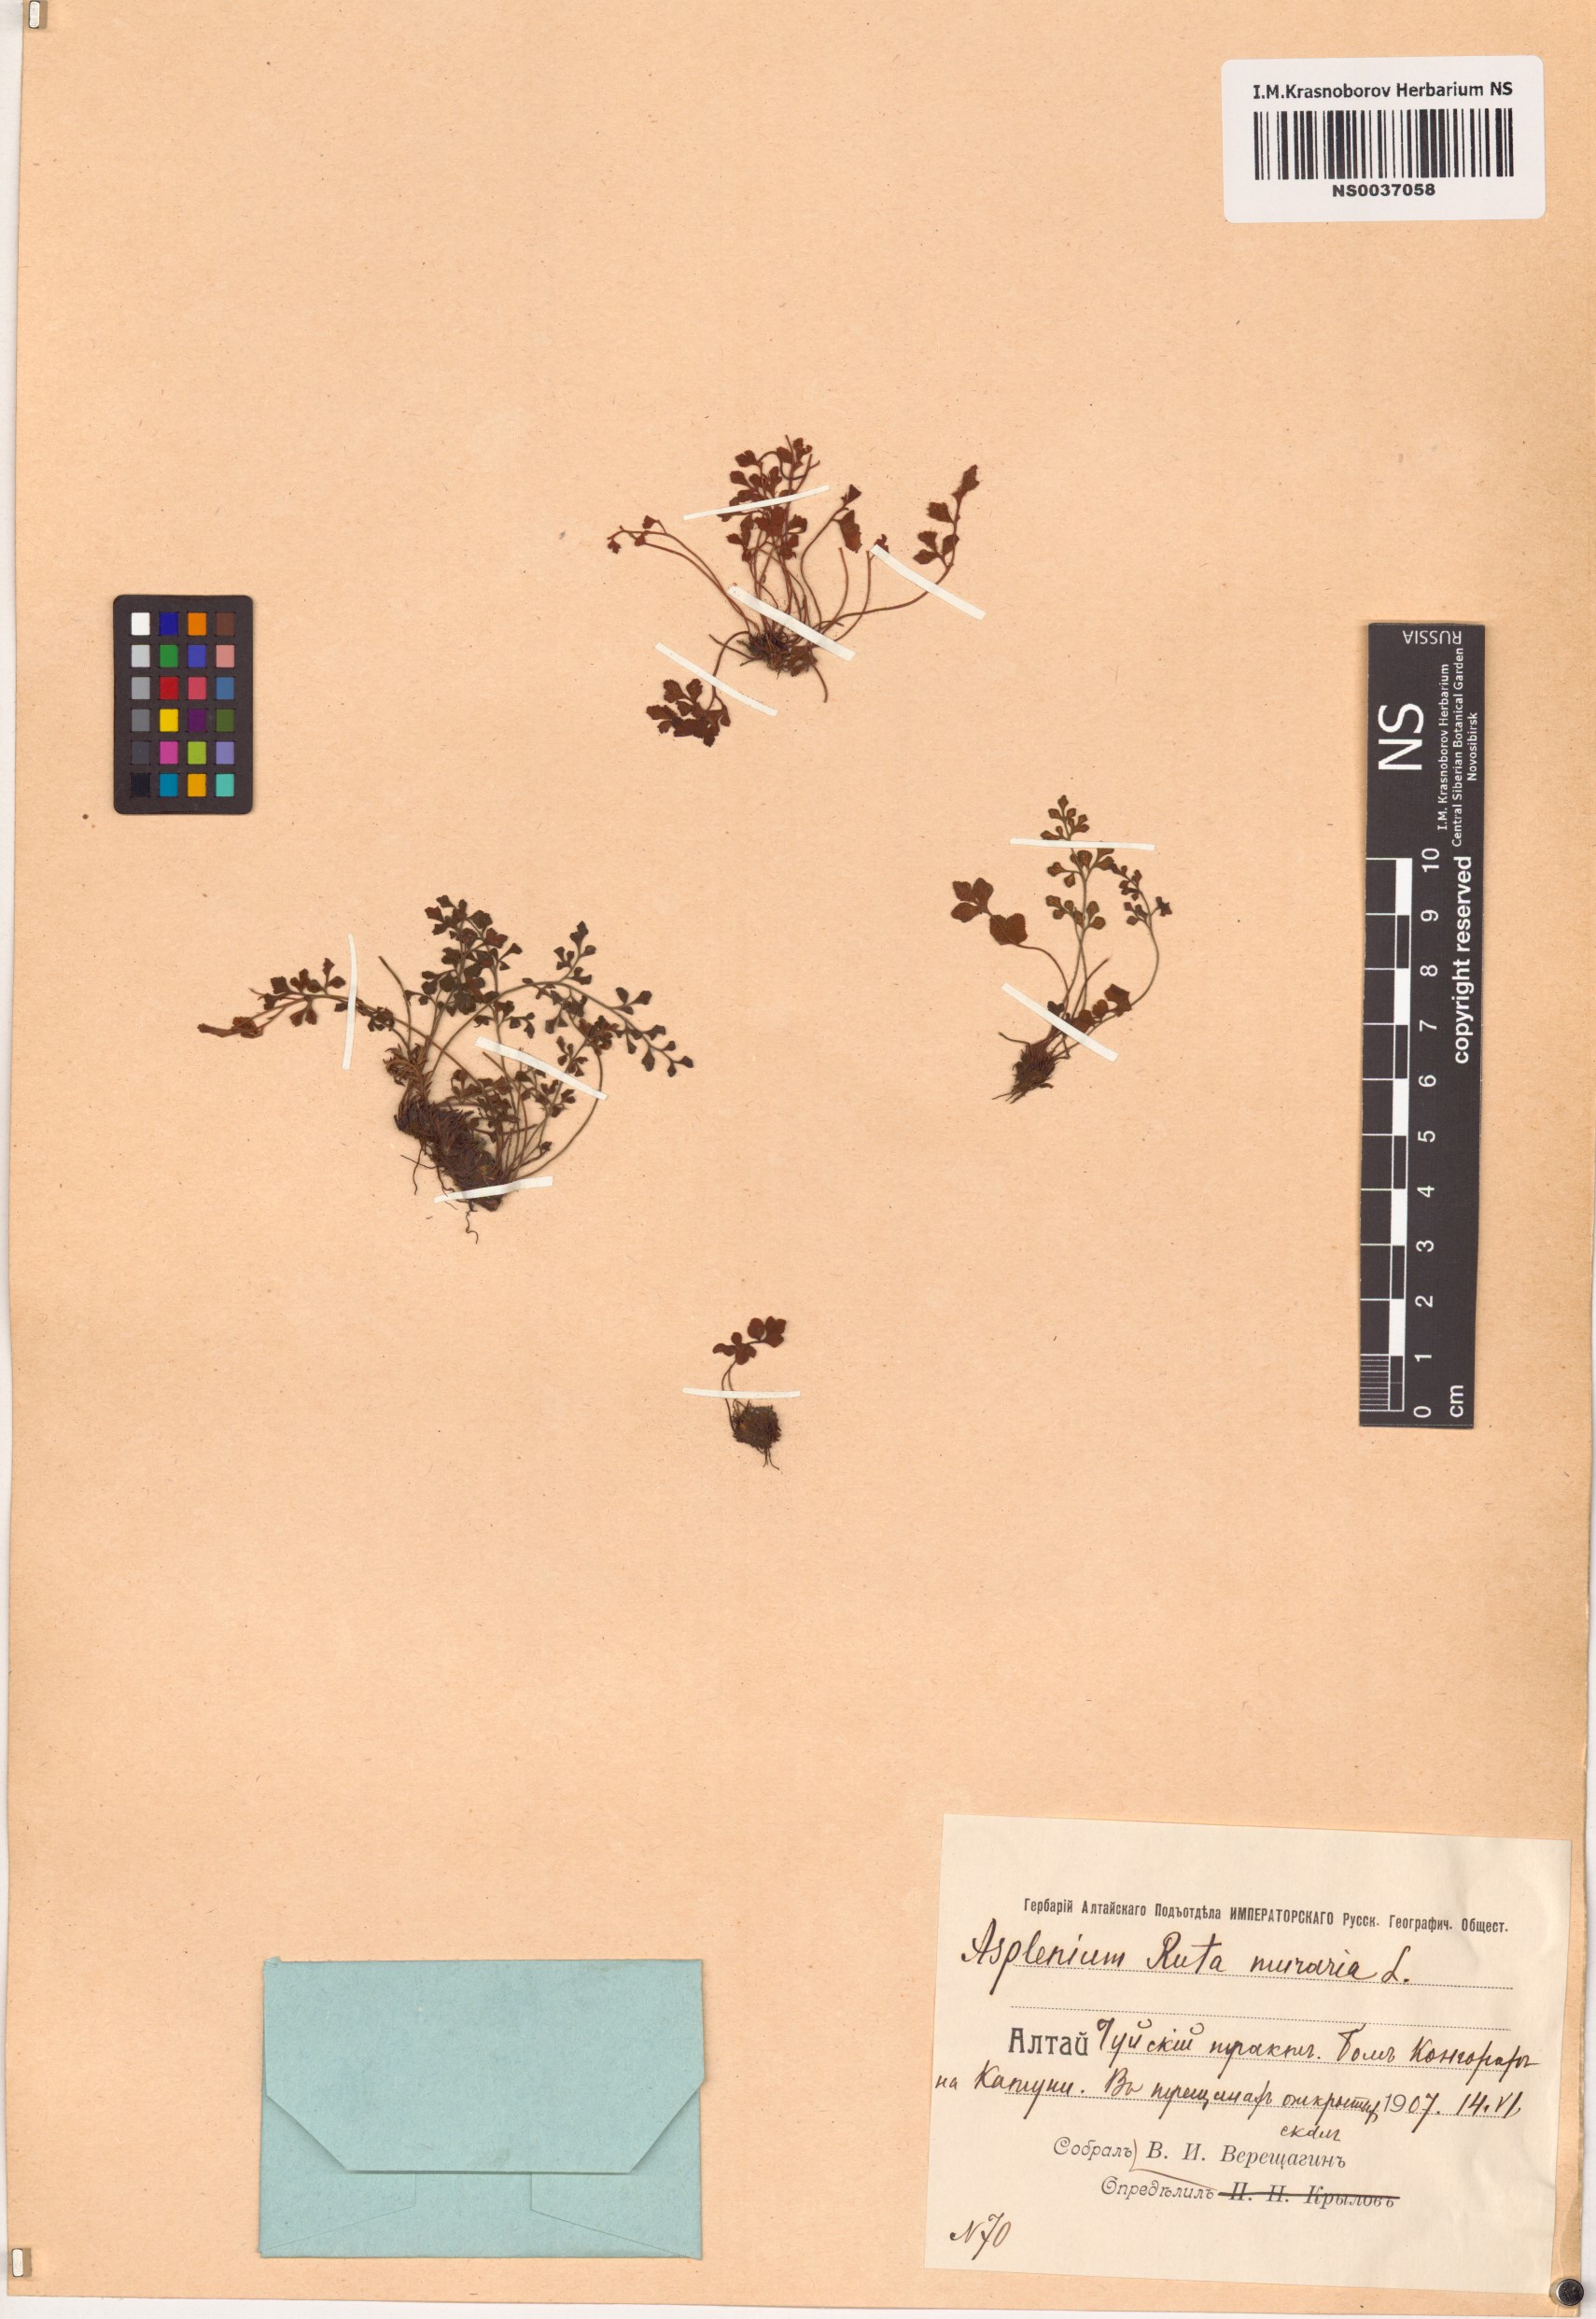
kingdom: Plantae
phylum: Tracheophyta
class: Polypodiopsida
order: Polypodiales
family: Aspleniaceae
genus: Asplenium
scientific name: Asplenium ruta-muraria
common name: Wall-rue
